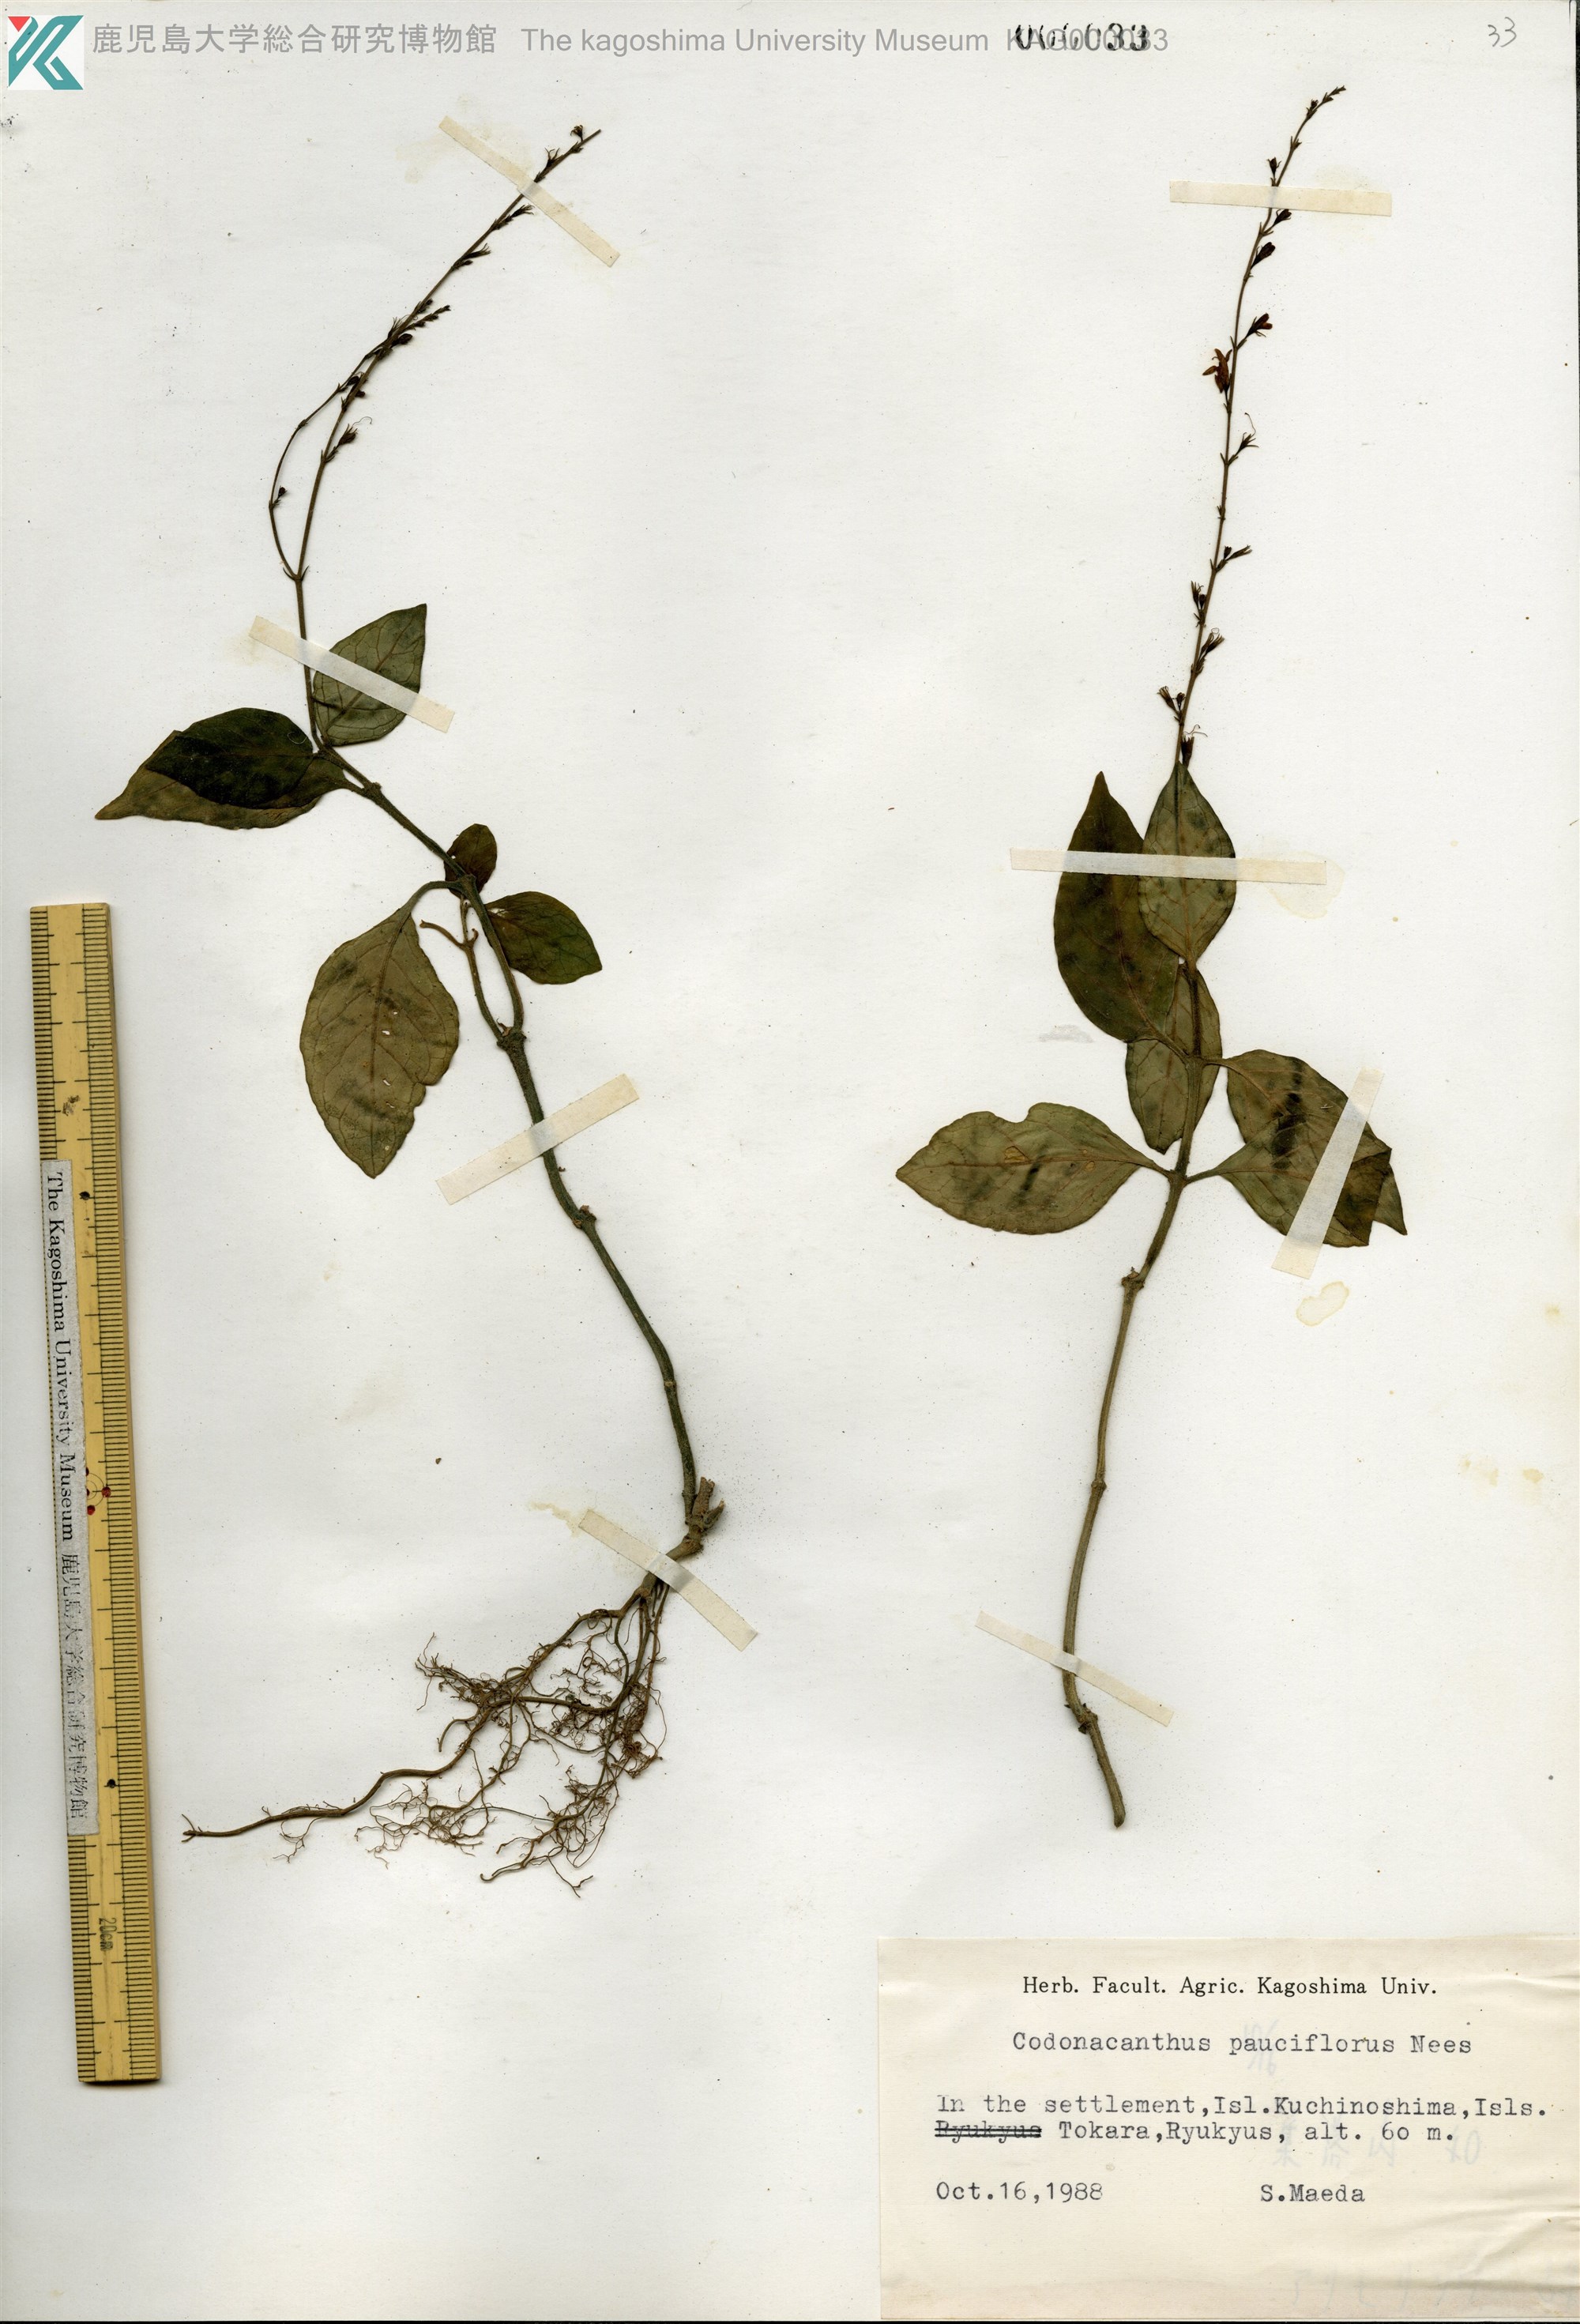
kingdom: Plantae
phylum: Tracheophyta
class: Magnoliopsida
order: Lamiales
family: Acanthaceae
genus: Codonacanthus
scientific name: Codonacanthus pauciflorus
